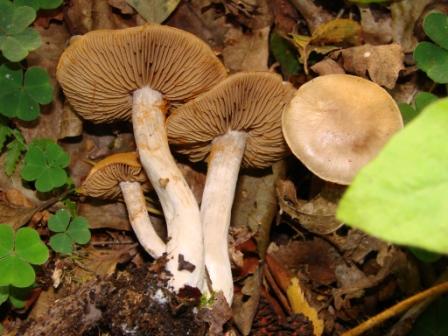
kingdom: Fungi
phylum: Basidiomycota
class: Agaricomycetes
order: Agaricales
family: Cortinariaceae
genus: Cortinarius
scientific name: Cortinarius tabularis
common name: lerbrun slørhat
